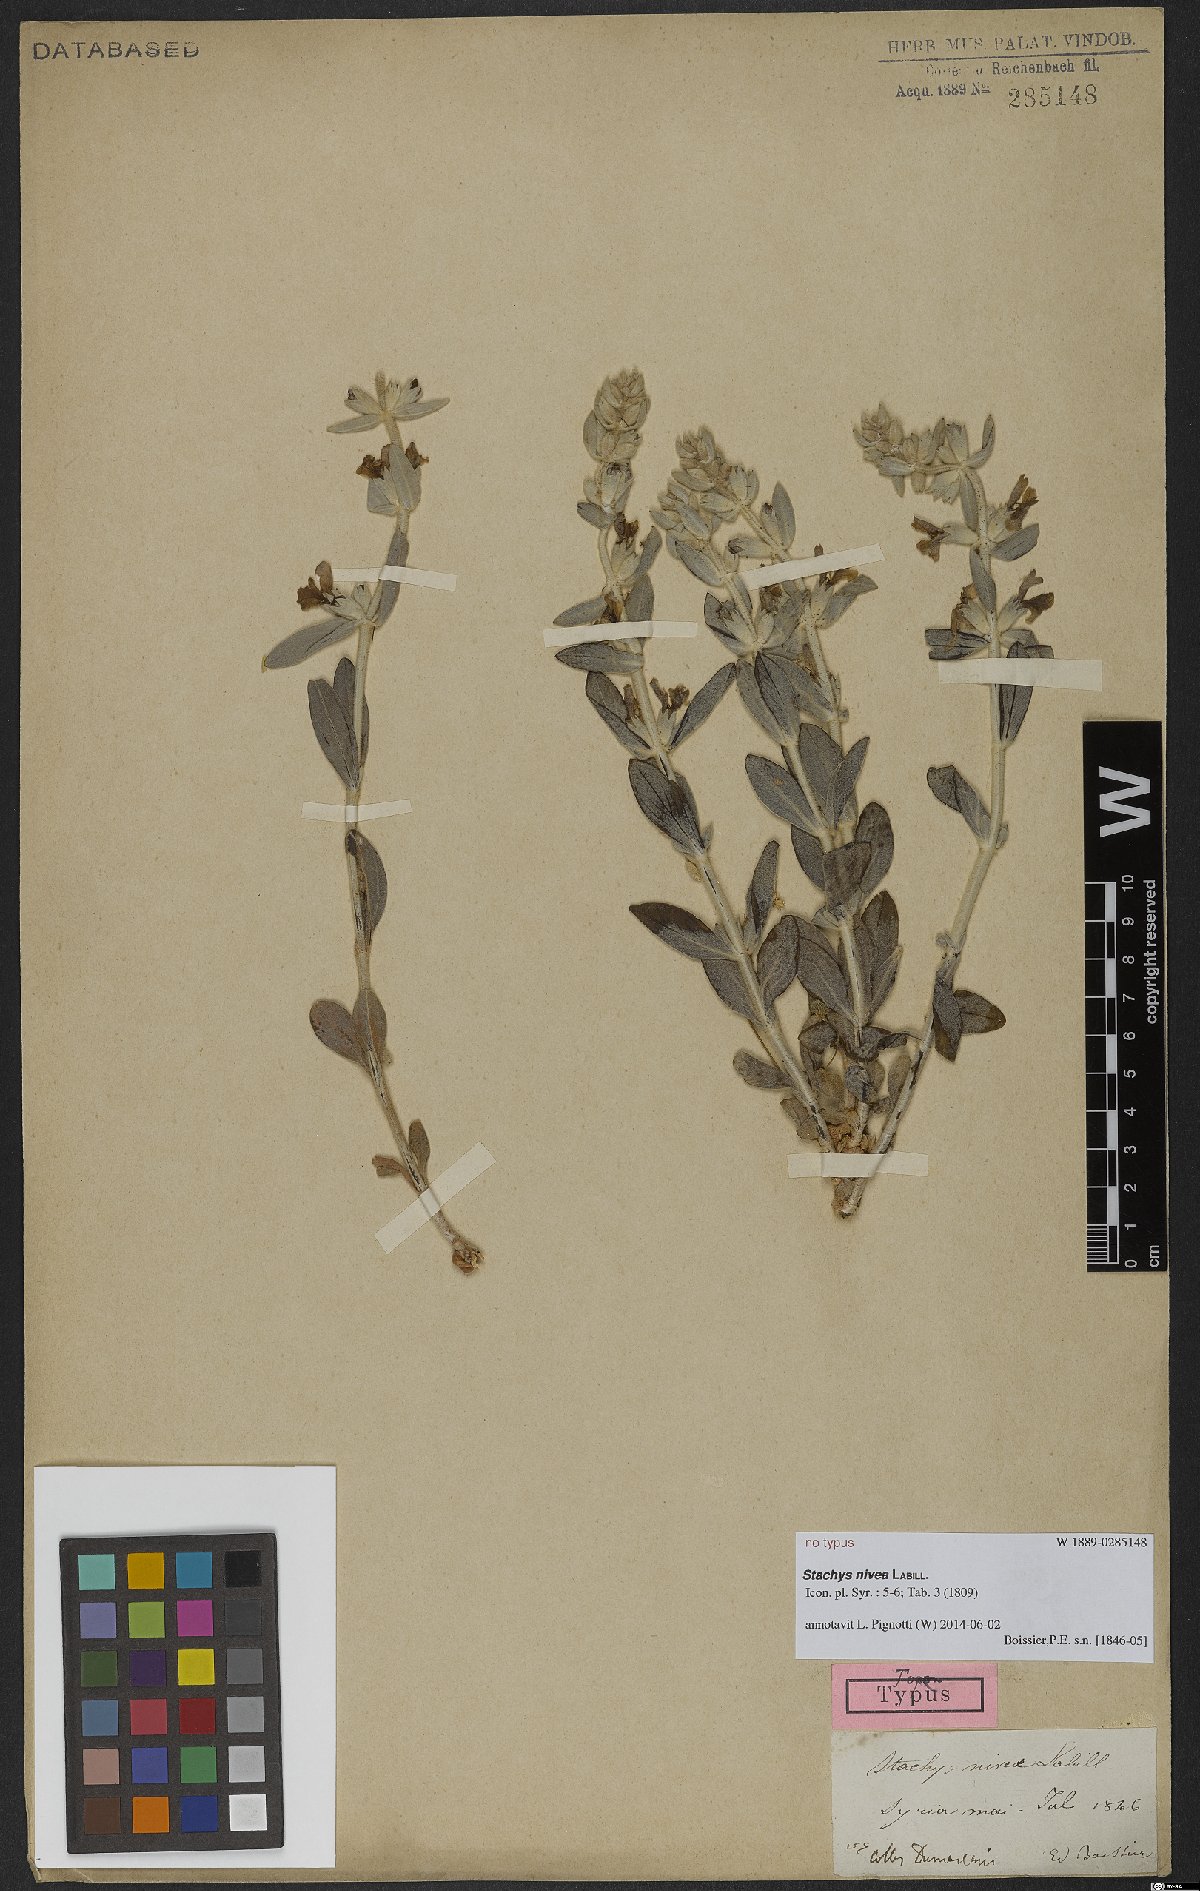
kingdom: Plantae
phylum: Tracheophyta
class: Magnoliopsida
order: Lamiales
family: Lamiaceae
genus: Stachys
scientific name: Stachys nivea
